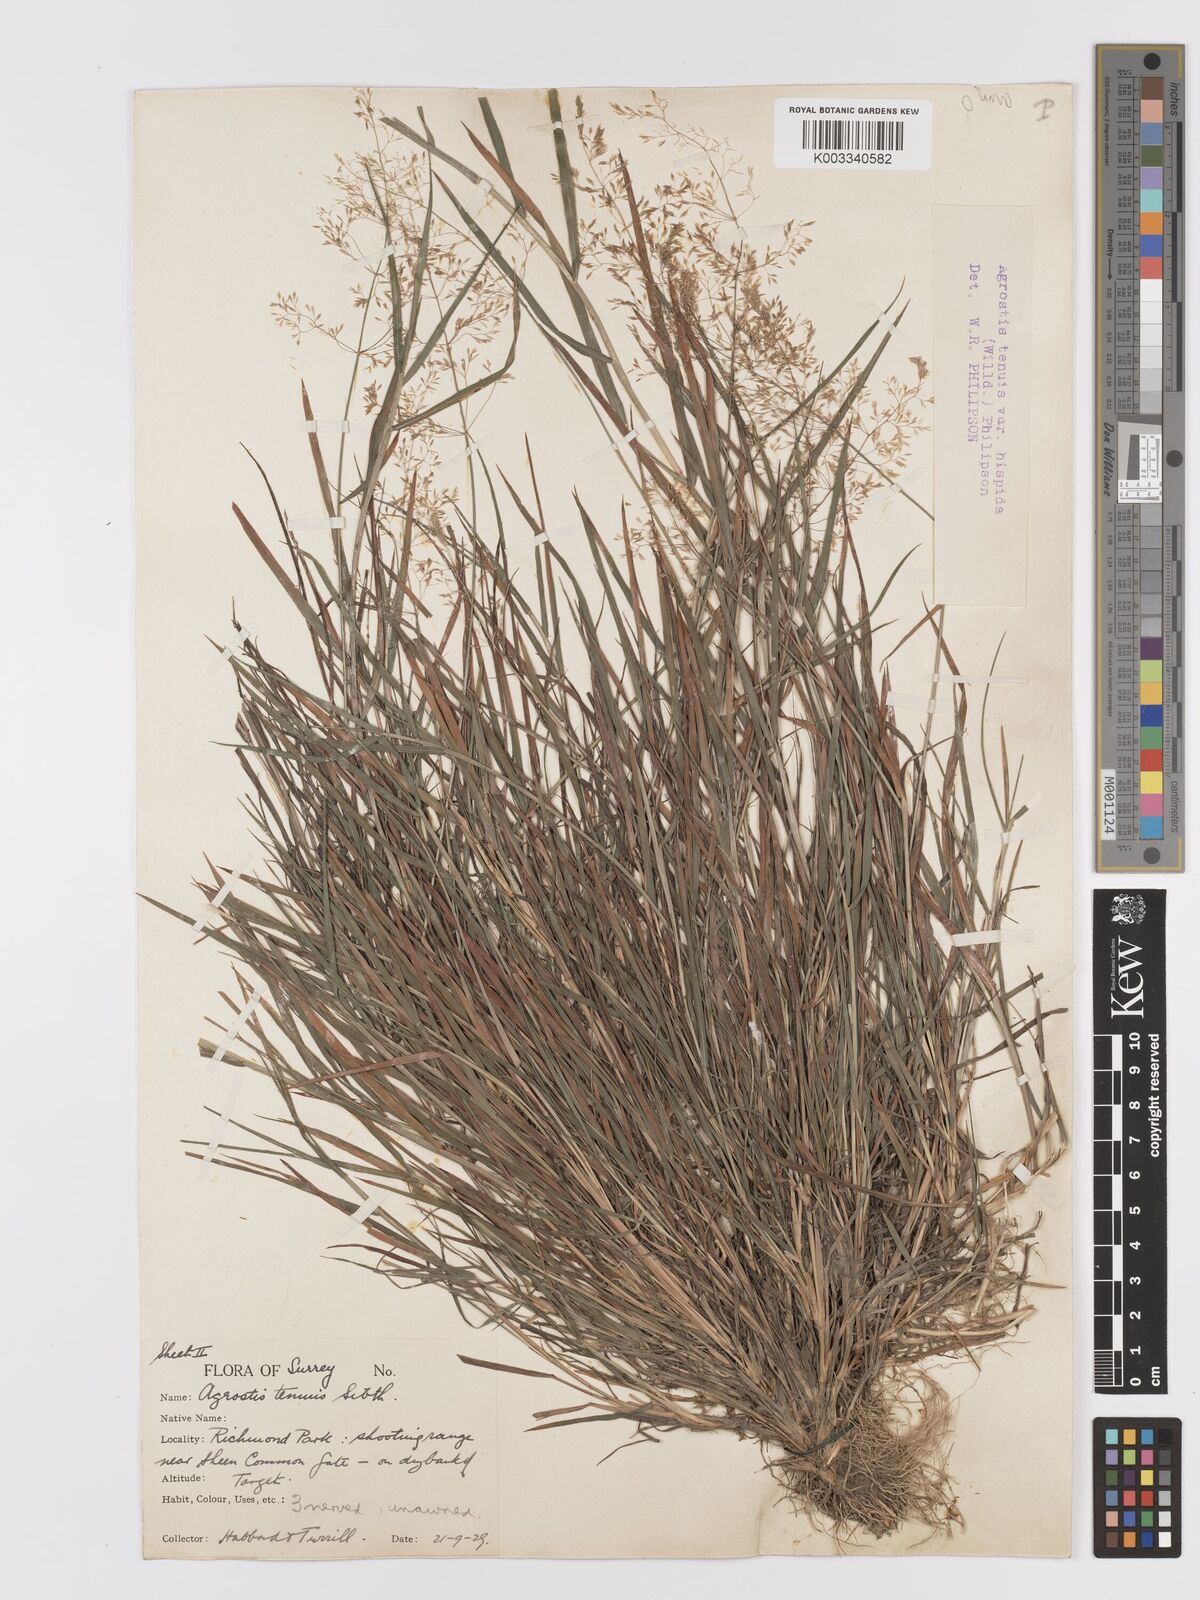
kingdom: Plantae
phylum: Tracheophyta
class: Liliopsida
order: Poales
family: Poaceae
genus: Agrostis
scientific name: Agrostis capillaris
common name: Colonial bentgrass
